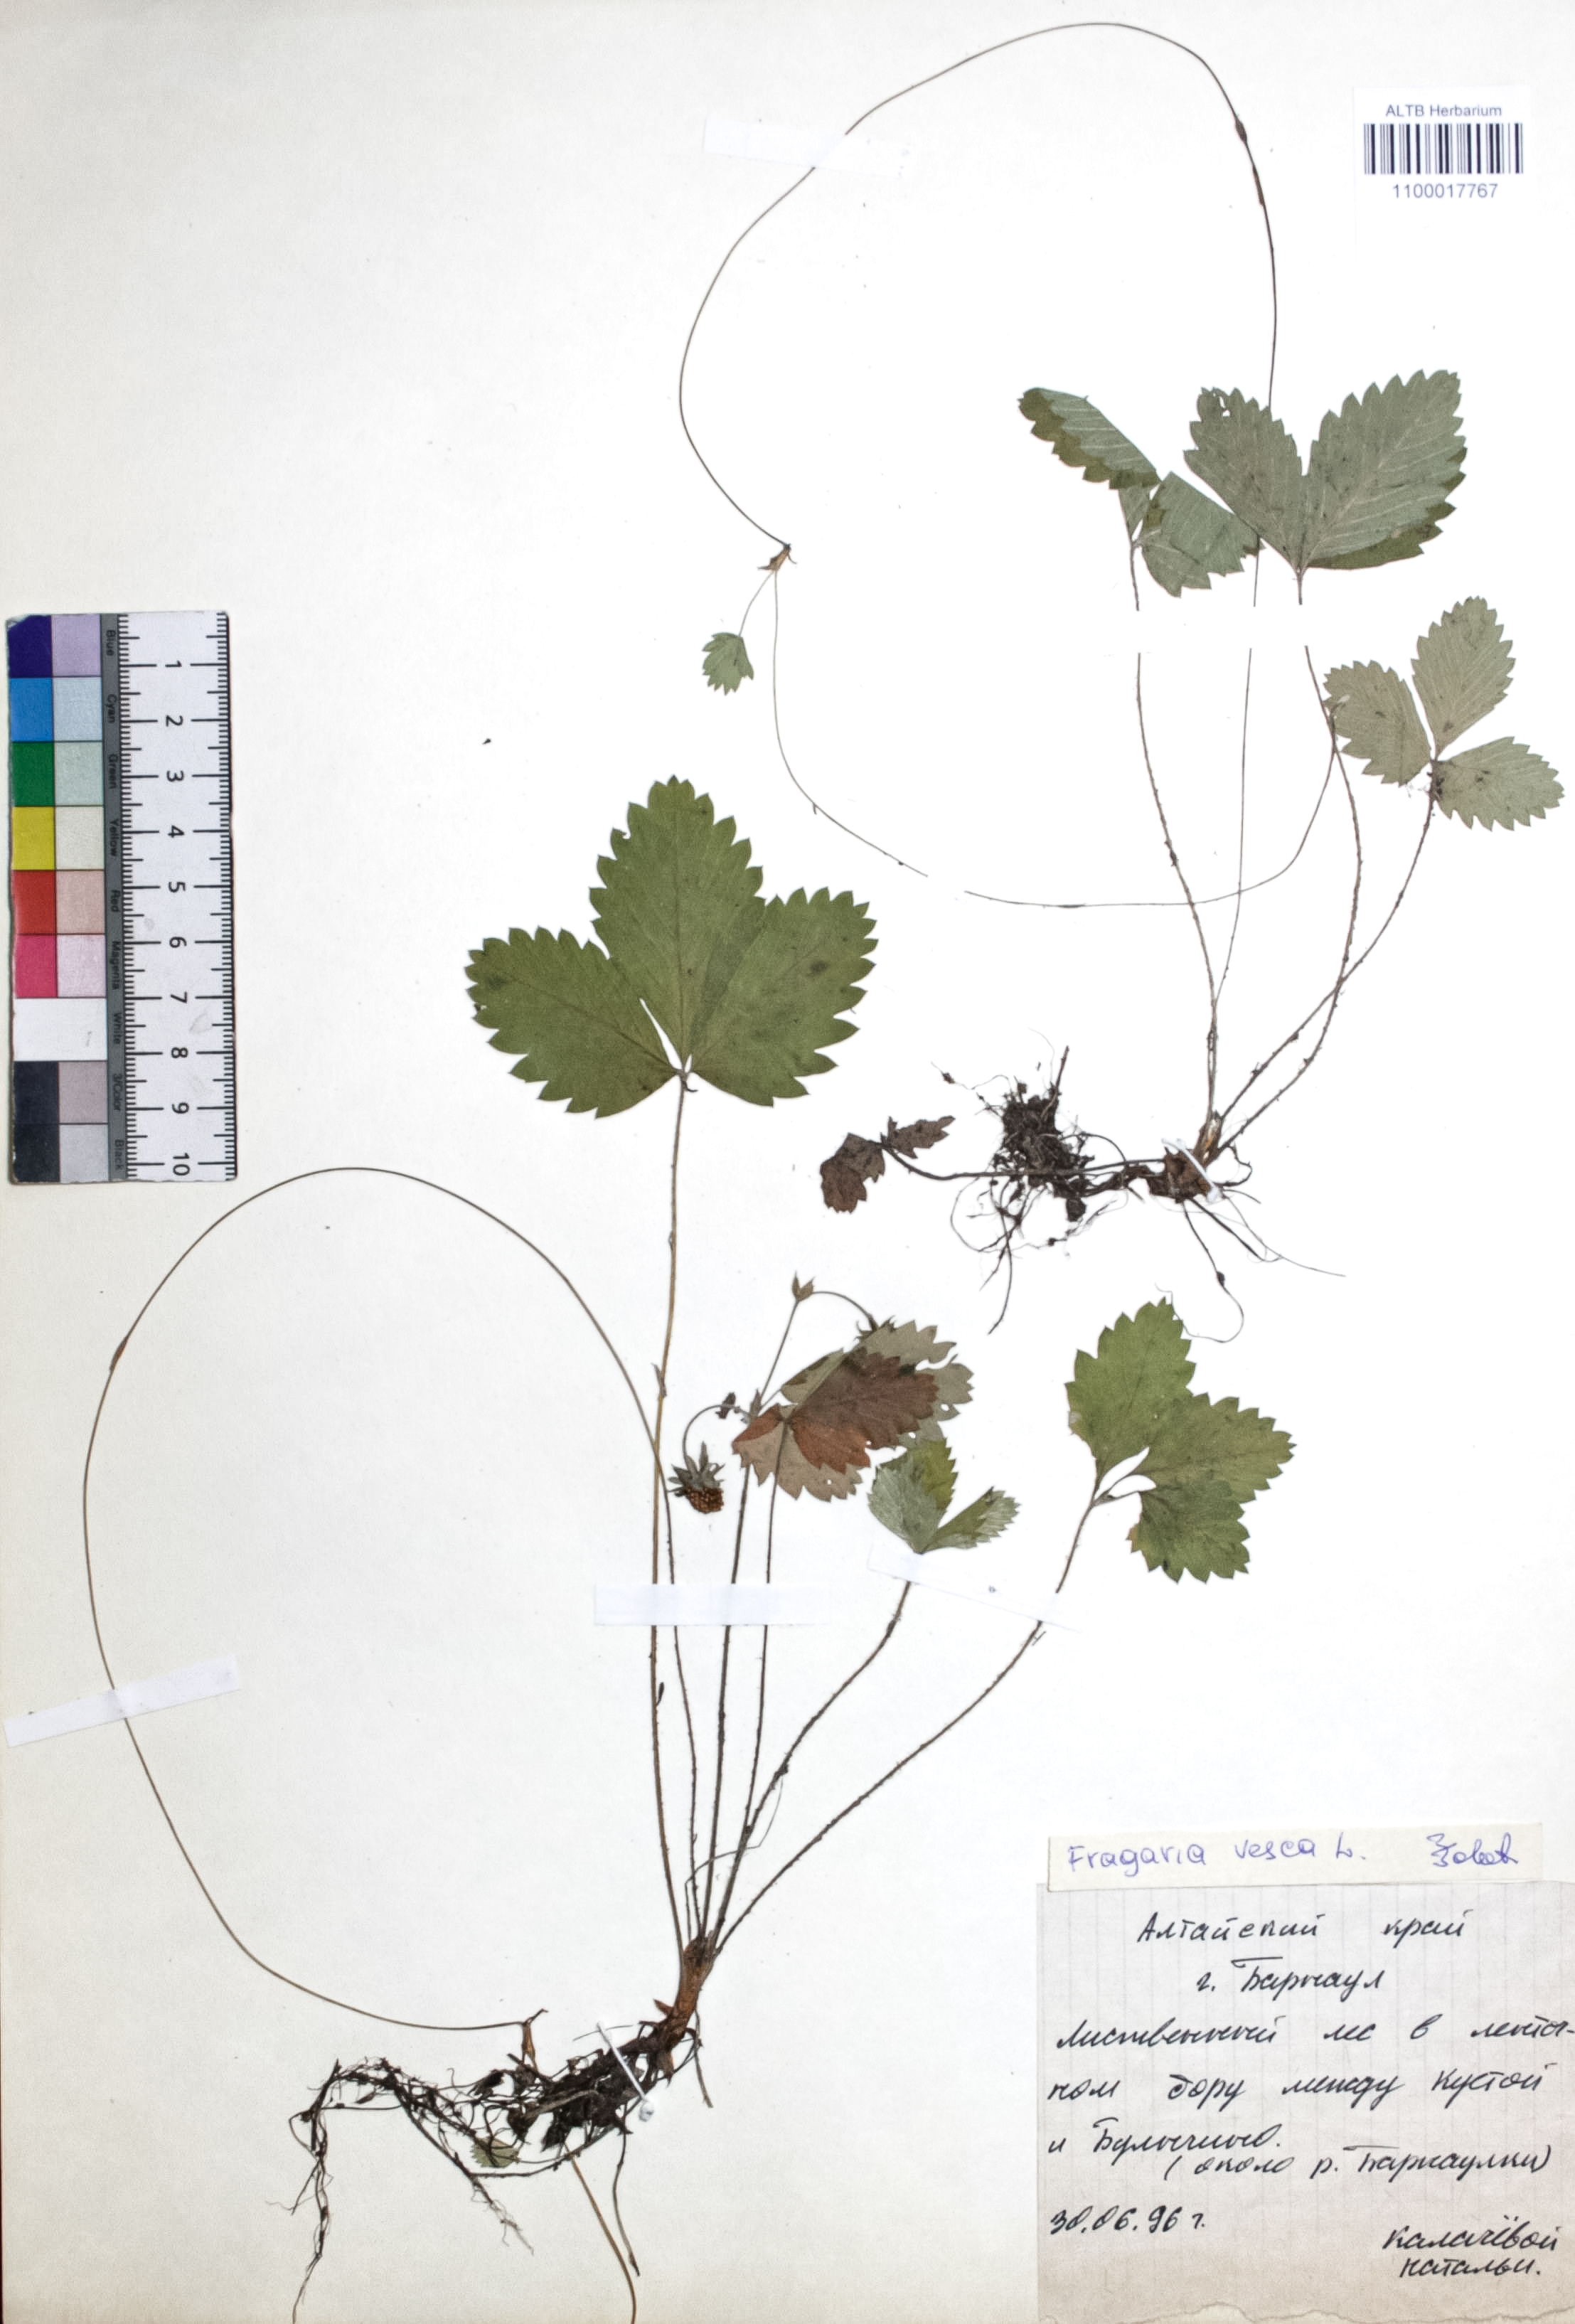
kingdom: Plantae
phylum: Tracheophyta
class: Magnoliopsida
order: Rosales
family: Rosaceae
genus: Fragaria
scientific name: Fragaria vesca
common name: Wild strawberry
